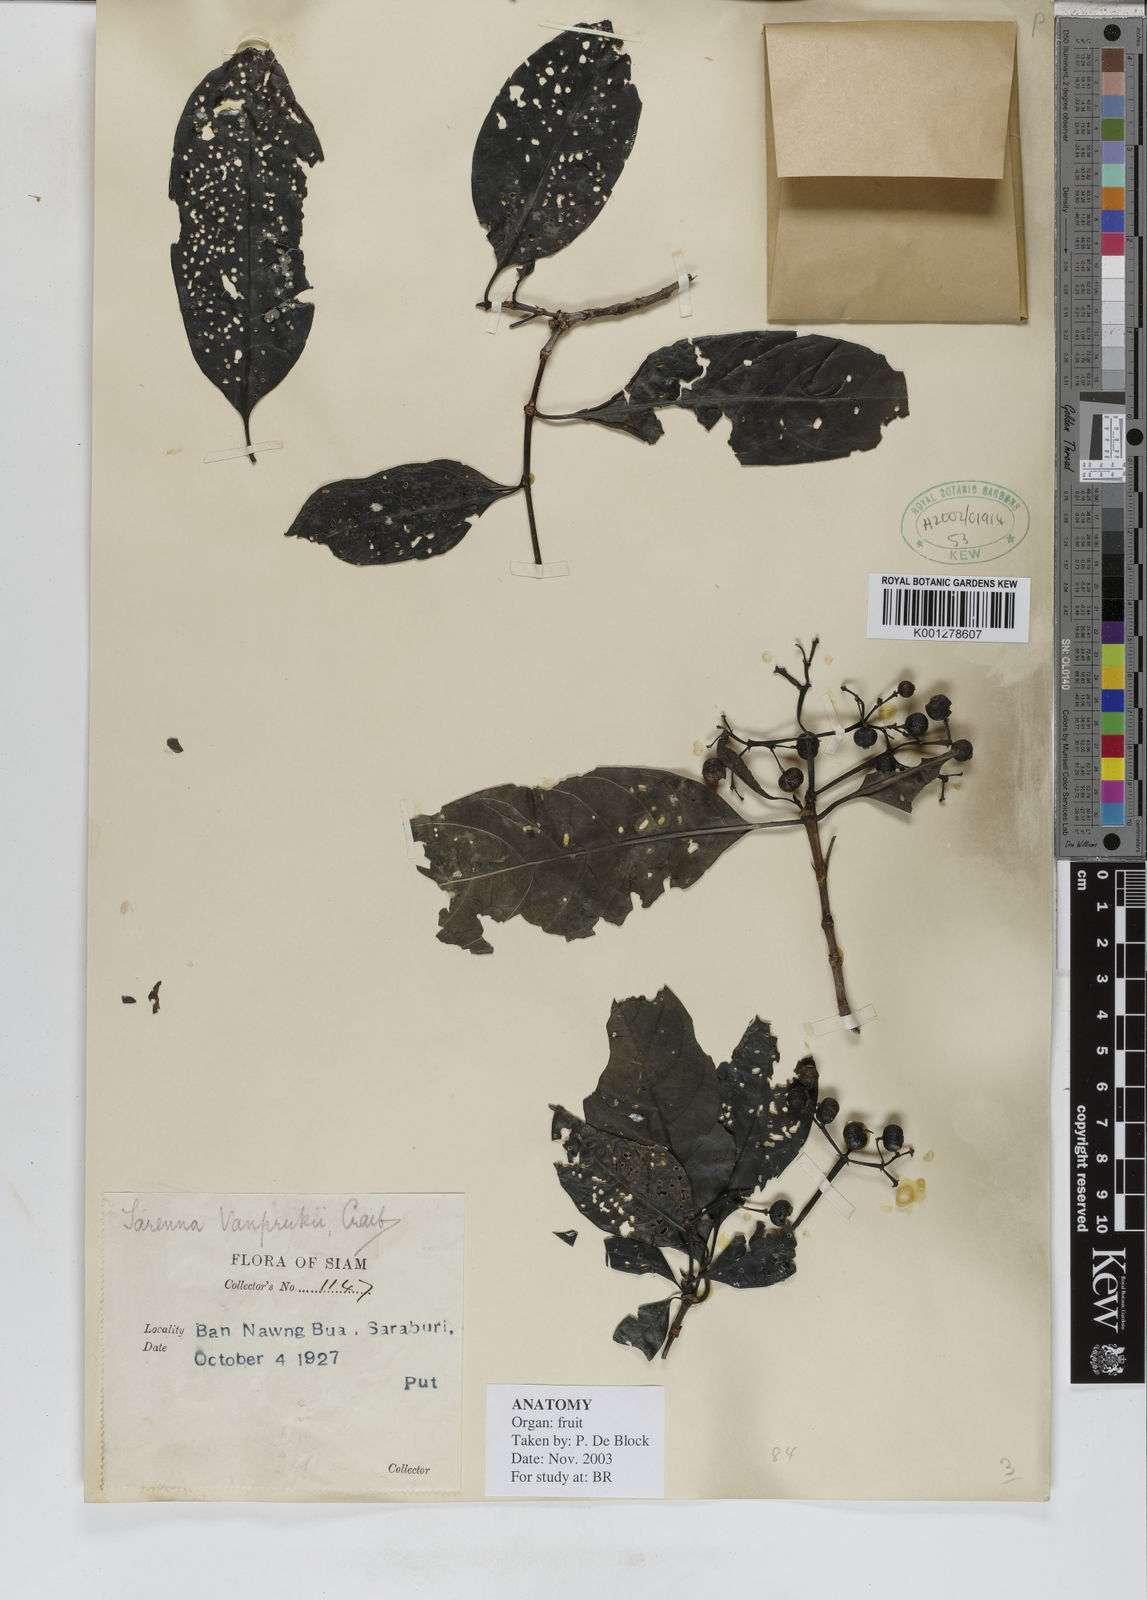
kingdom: Plantae
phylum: Tracheophyta
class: Magnoliopsida
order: Gentianales
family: Rubiaceae
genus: Tarenna
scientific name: Tarenna vanprukii
